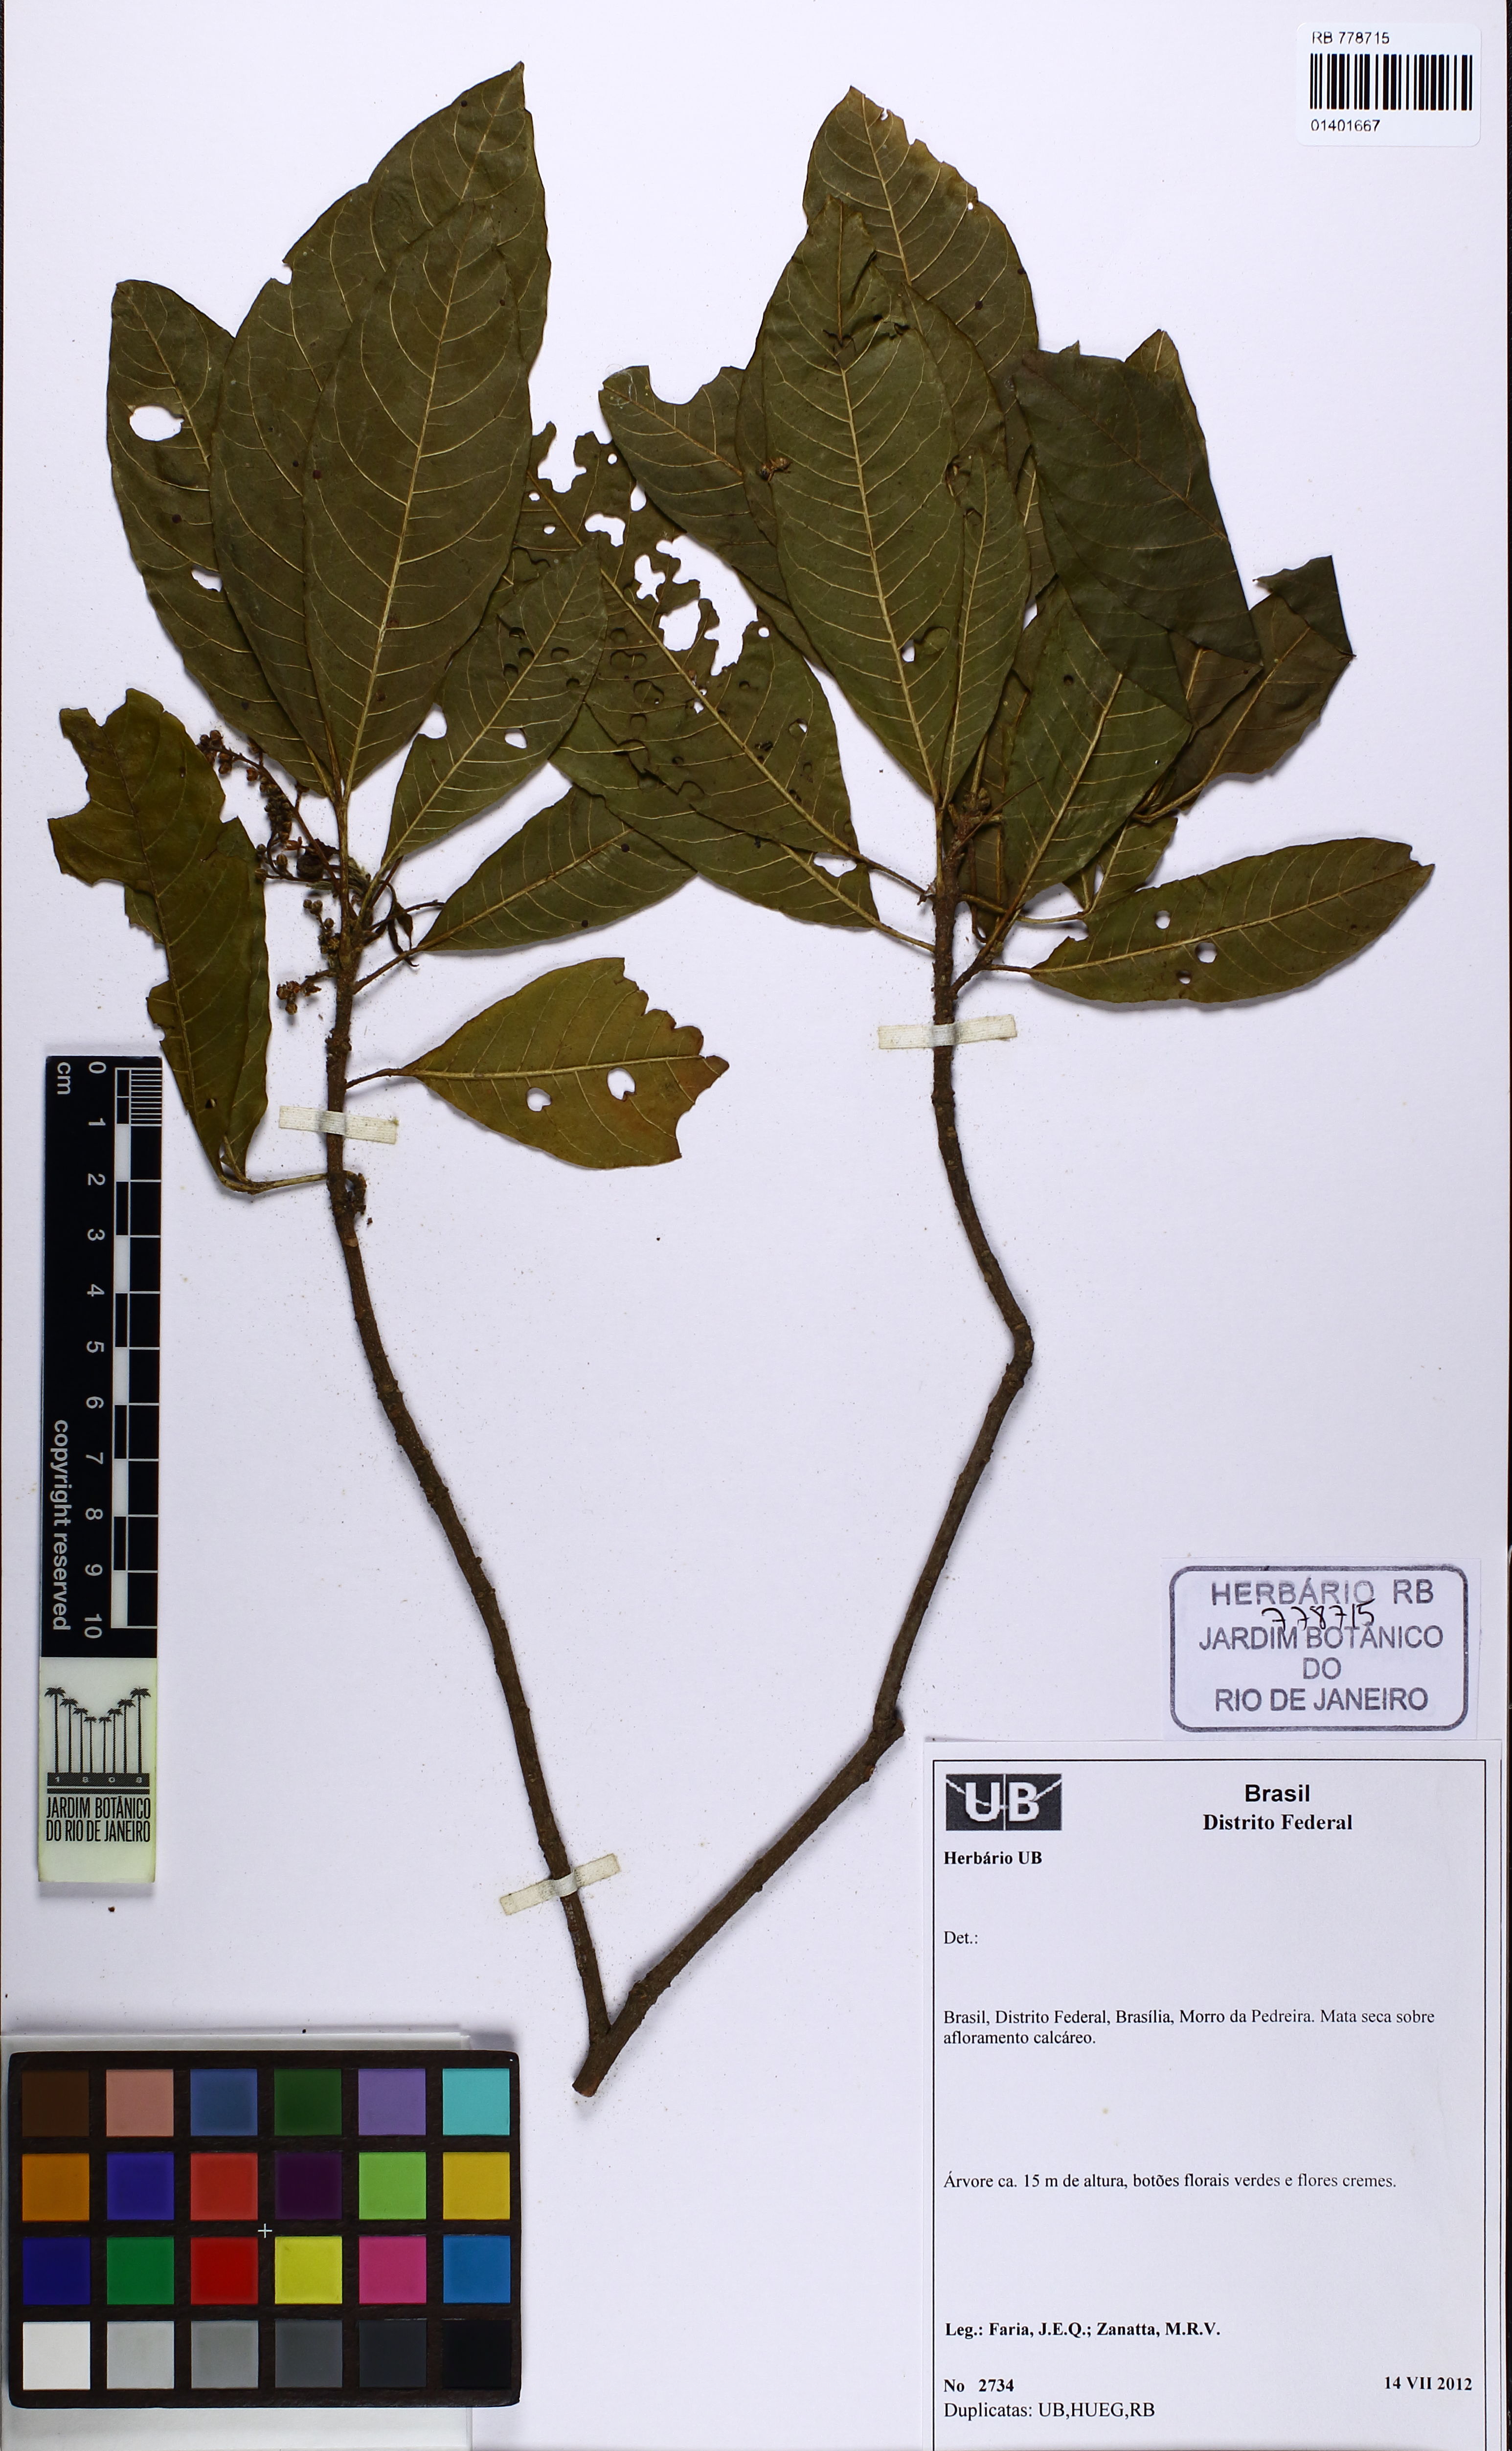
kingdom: Plantae
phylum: Tracheophyta
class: Magnoliopsida
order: Sapindales
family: Meliaceae
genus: Trichilia
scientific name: Trichilia claussenii
